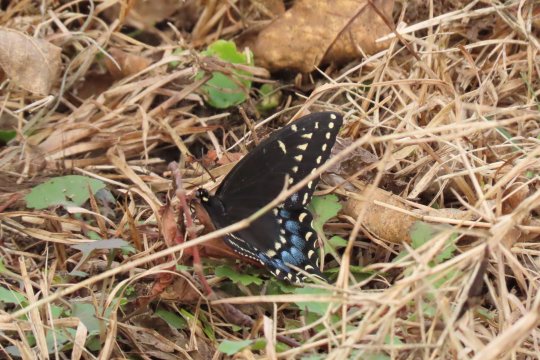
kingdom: Animalia
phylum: Arthropoda
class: Insecta
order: Lepidoptera
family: Papilionidae
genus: Papilio
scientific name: Papilio polyxenes
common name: Black Swallowtail
